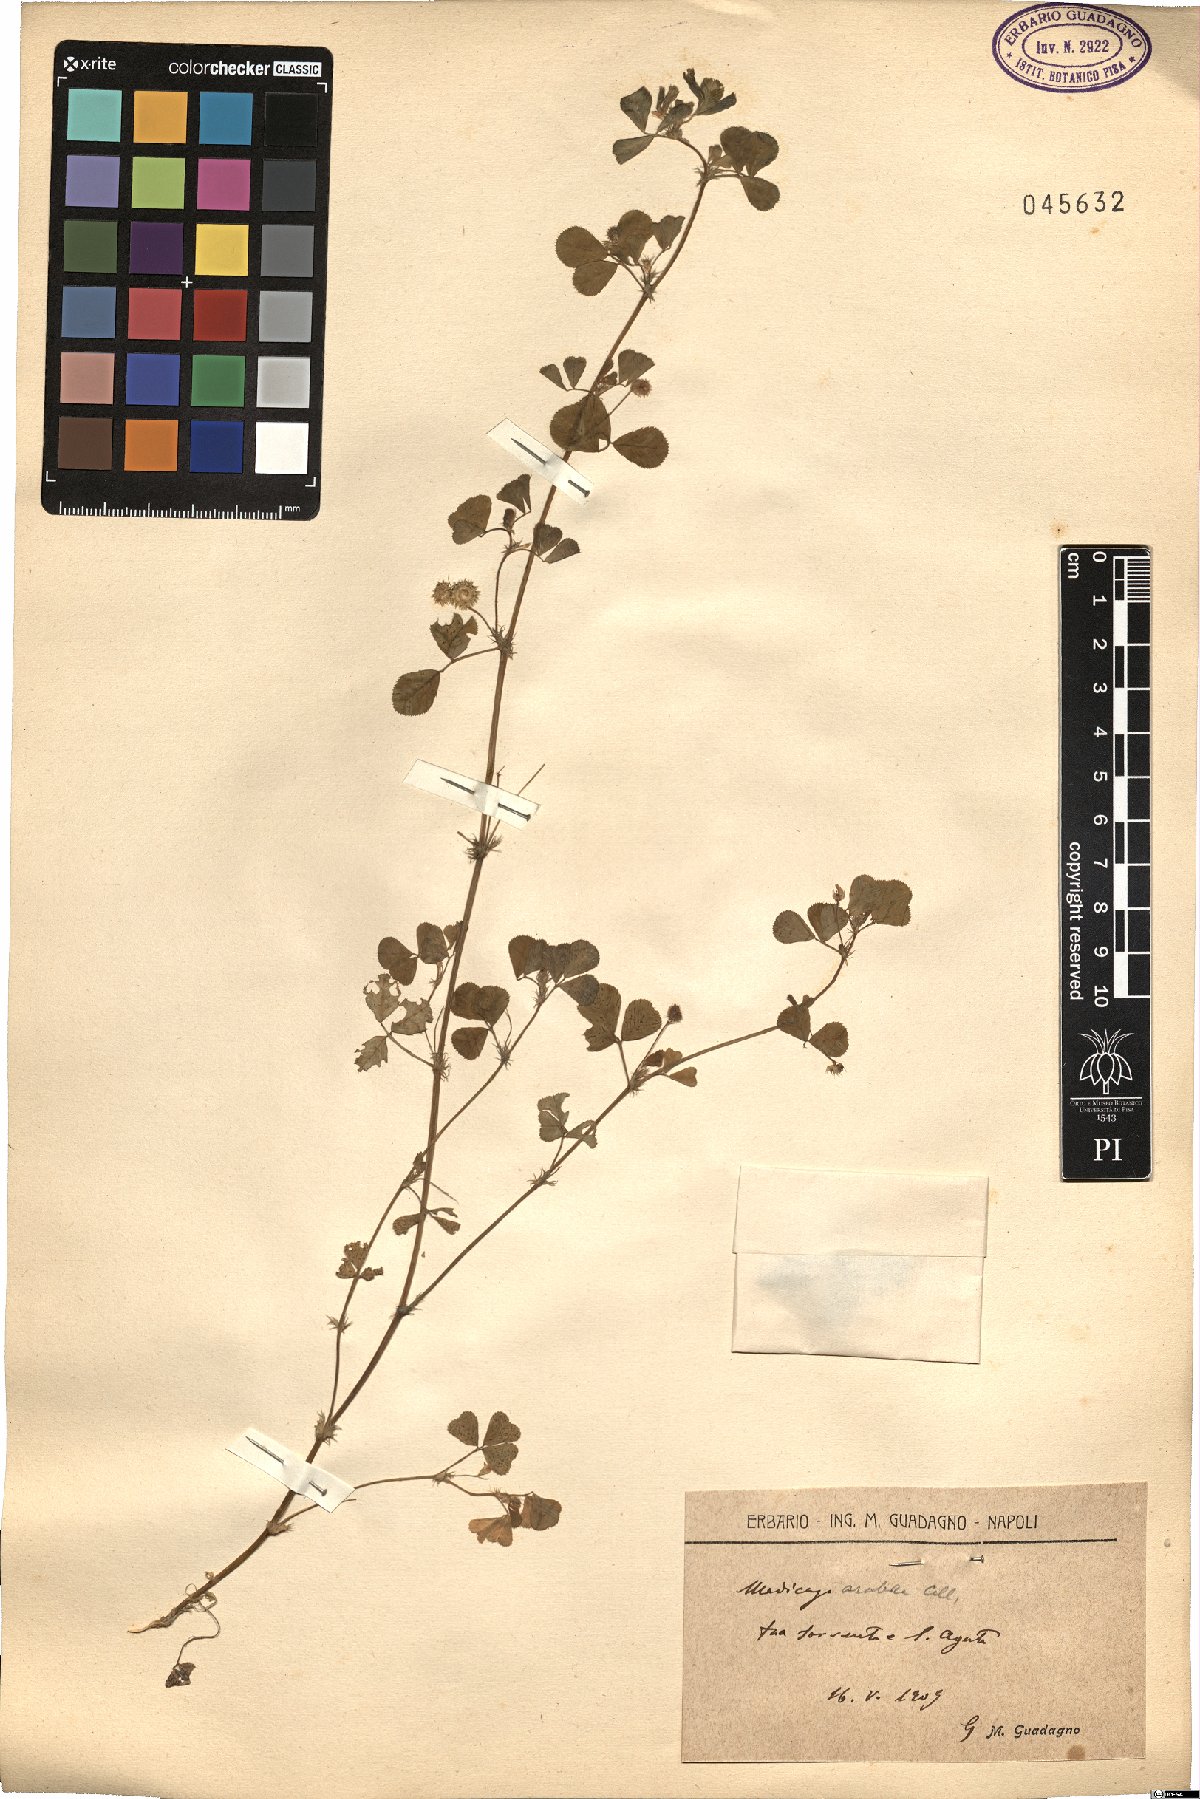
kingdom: Plantae
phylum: Tracheophyta
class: Magnoliopsida
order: Fabales
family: Fabaceae
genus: Medicago
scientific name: Medicago arabica
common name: Spotted medick
